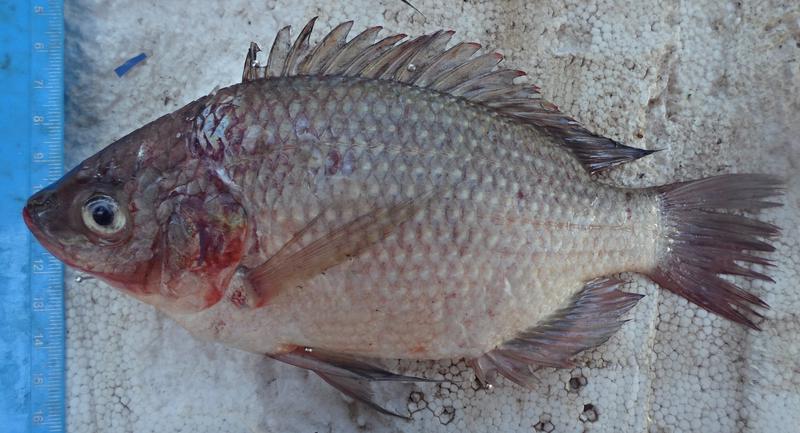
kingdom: Animalia
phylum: Chordata
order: Perciformes
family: Cichlidae
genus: Oreochromis
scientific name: Oreochromis esculentus
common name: Carp
